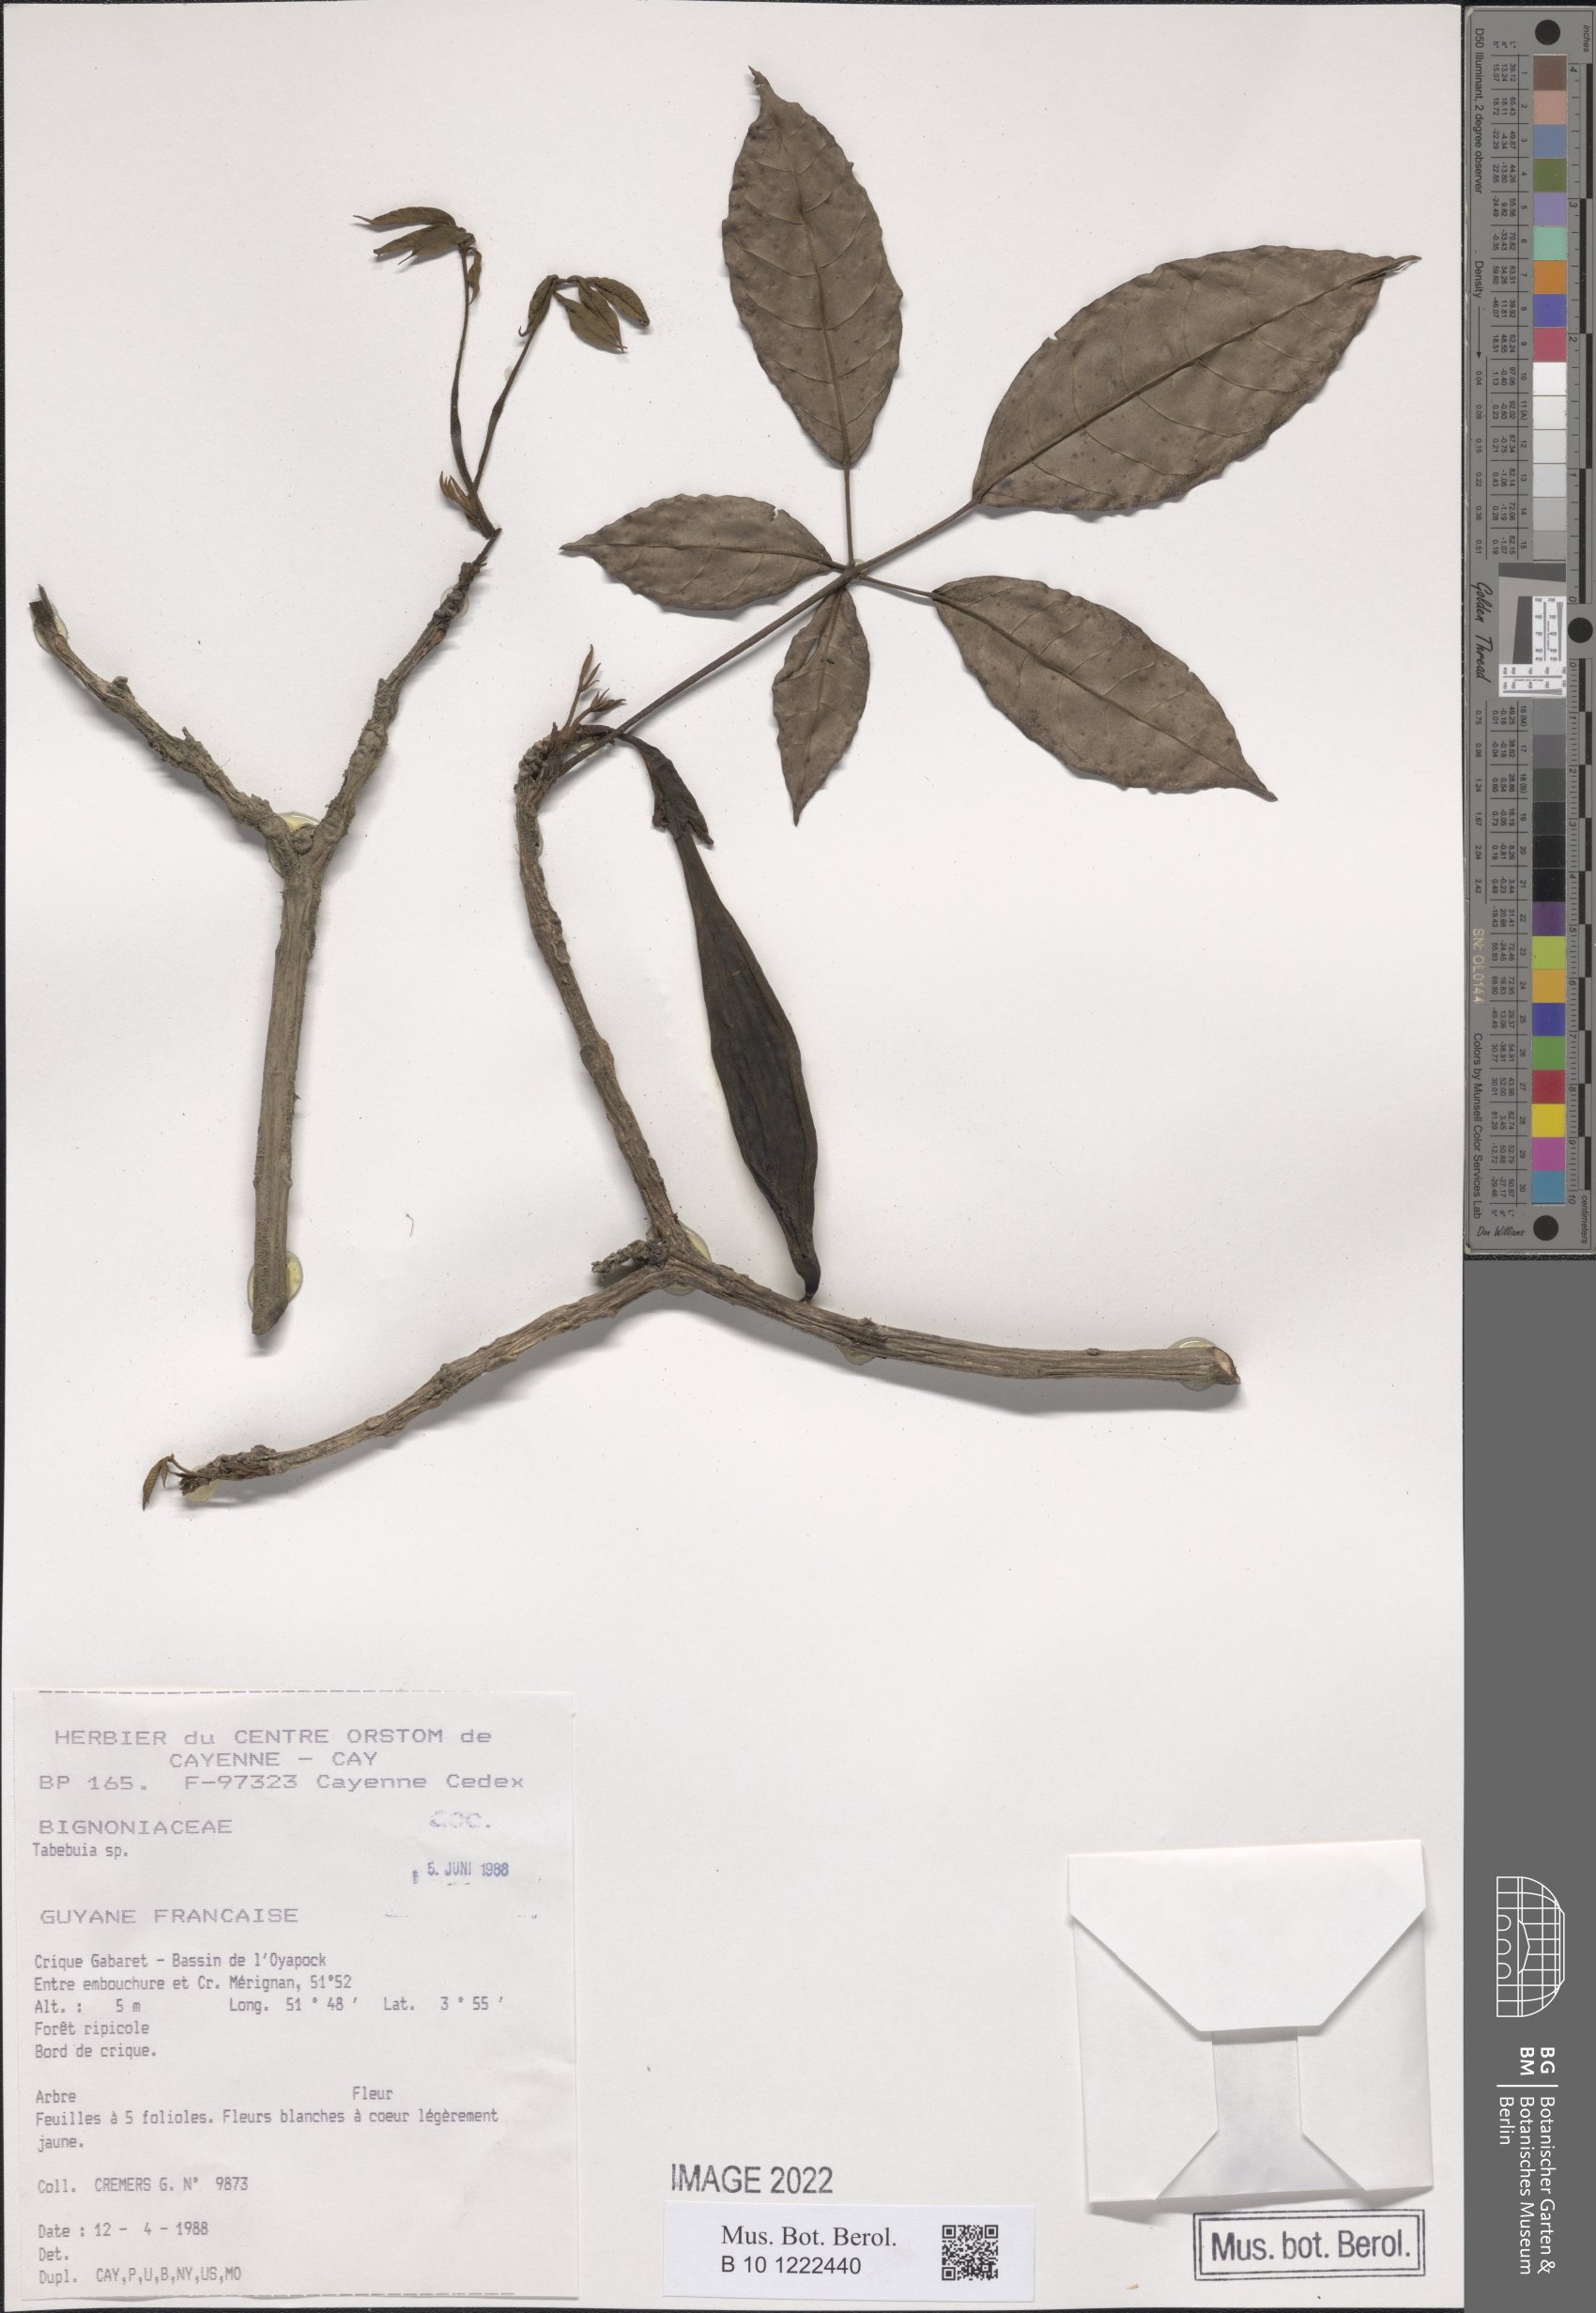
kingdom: Plantae
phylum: Tracheophyta
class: Magnoliopsida
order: Lamiales
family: Bignoniaceae
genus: Tabebuia
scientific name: Tabebuia
